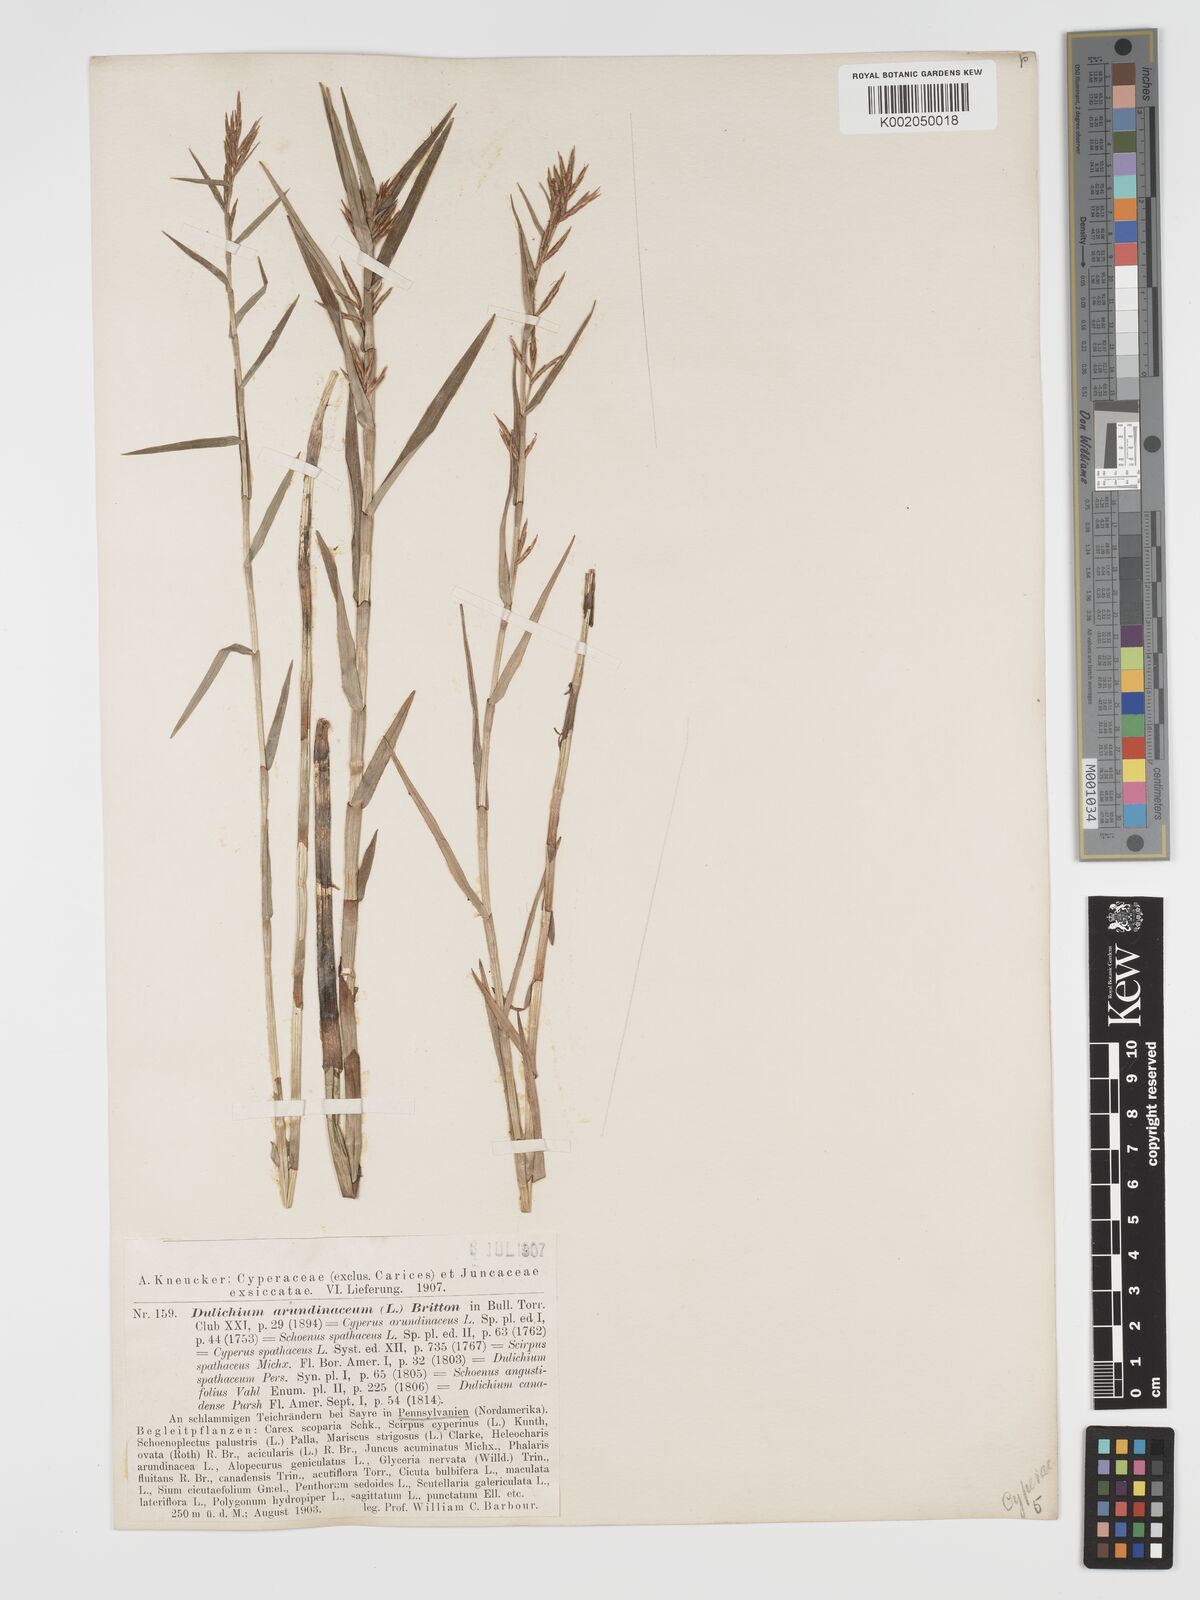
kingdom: Plantae
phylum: Tracheophyta
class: Liliopsida
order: Poales
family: Cyperaceae
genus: Dulichium
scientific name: Dulichium arundinaceum
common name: Three-way sedge
